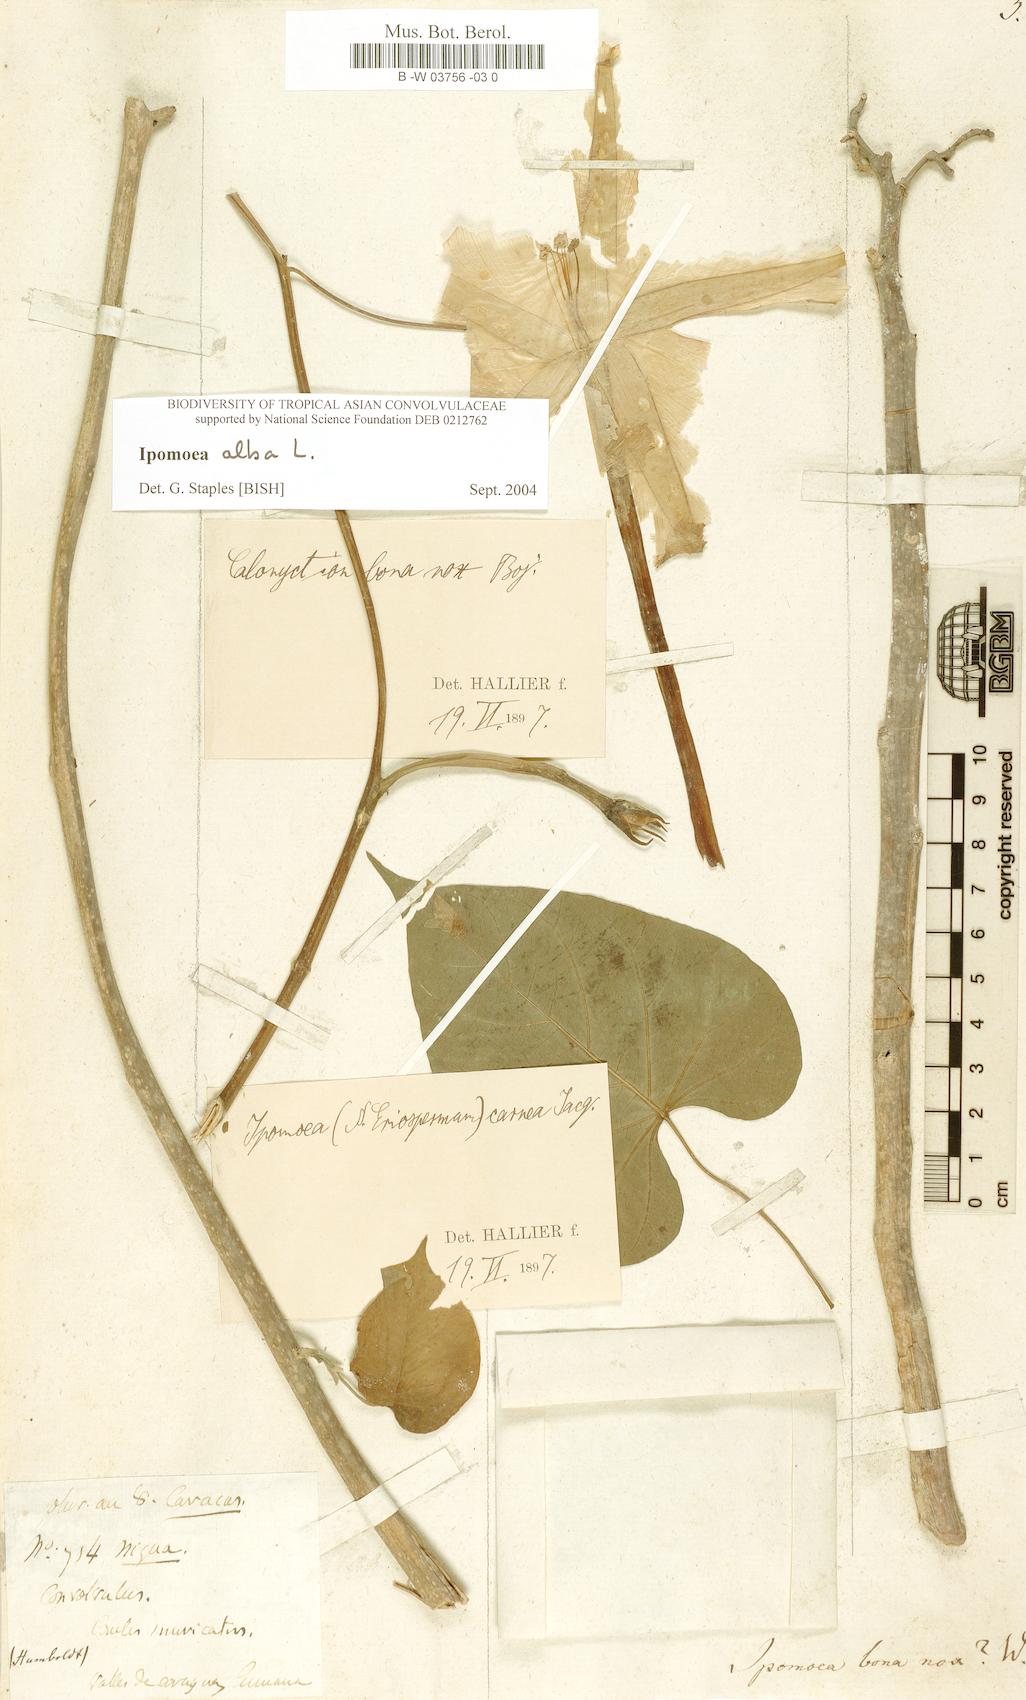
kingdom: Plantae
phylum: Tracheophyta
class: Magnoliopsida
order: Solanales
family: Convolvulaceae
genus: Ipomoea
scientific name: Ipomoea alba
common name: Moonflower
